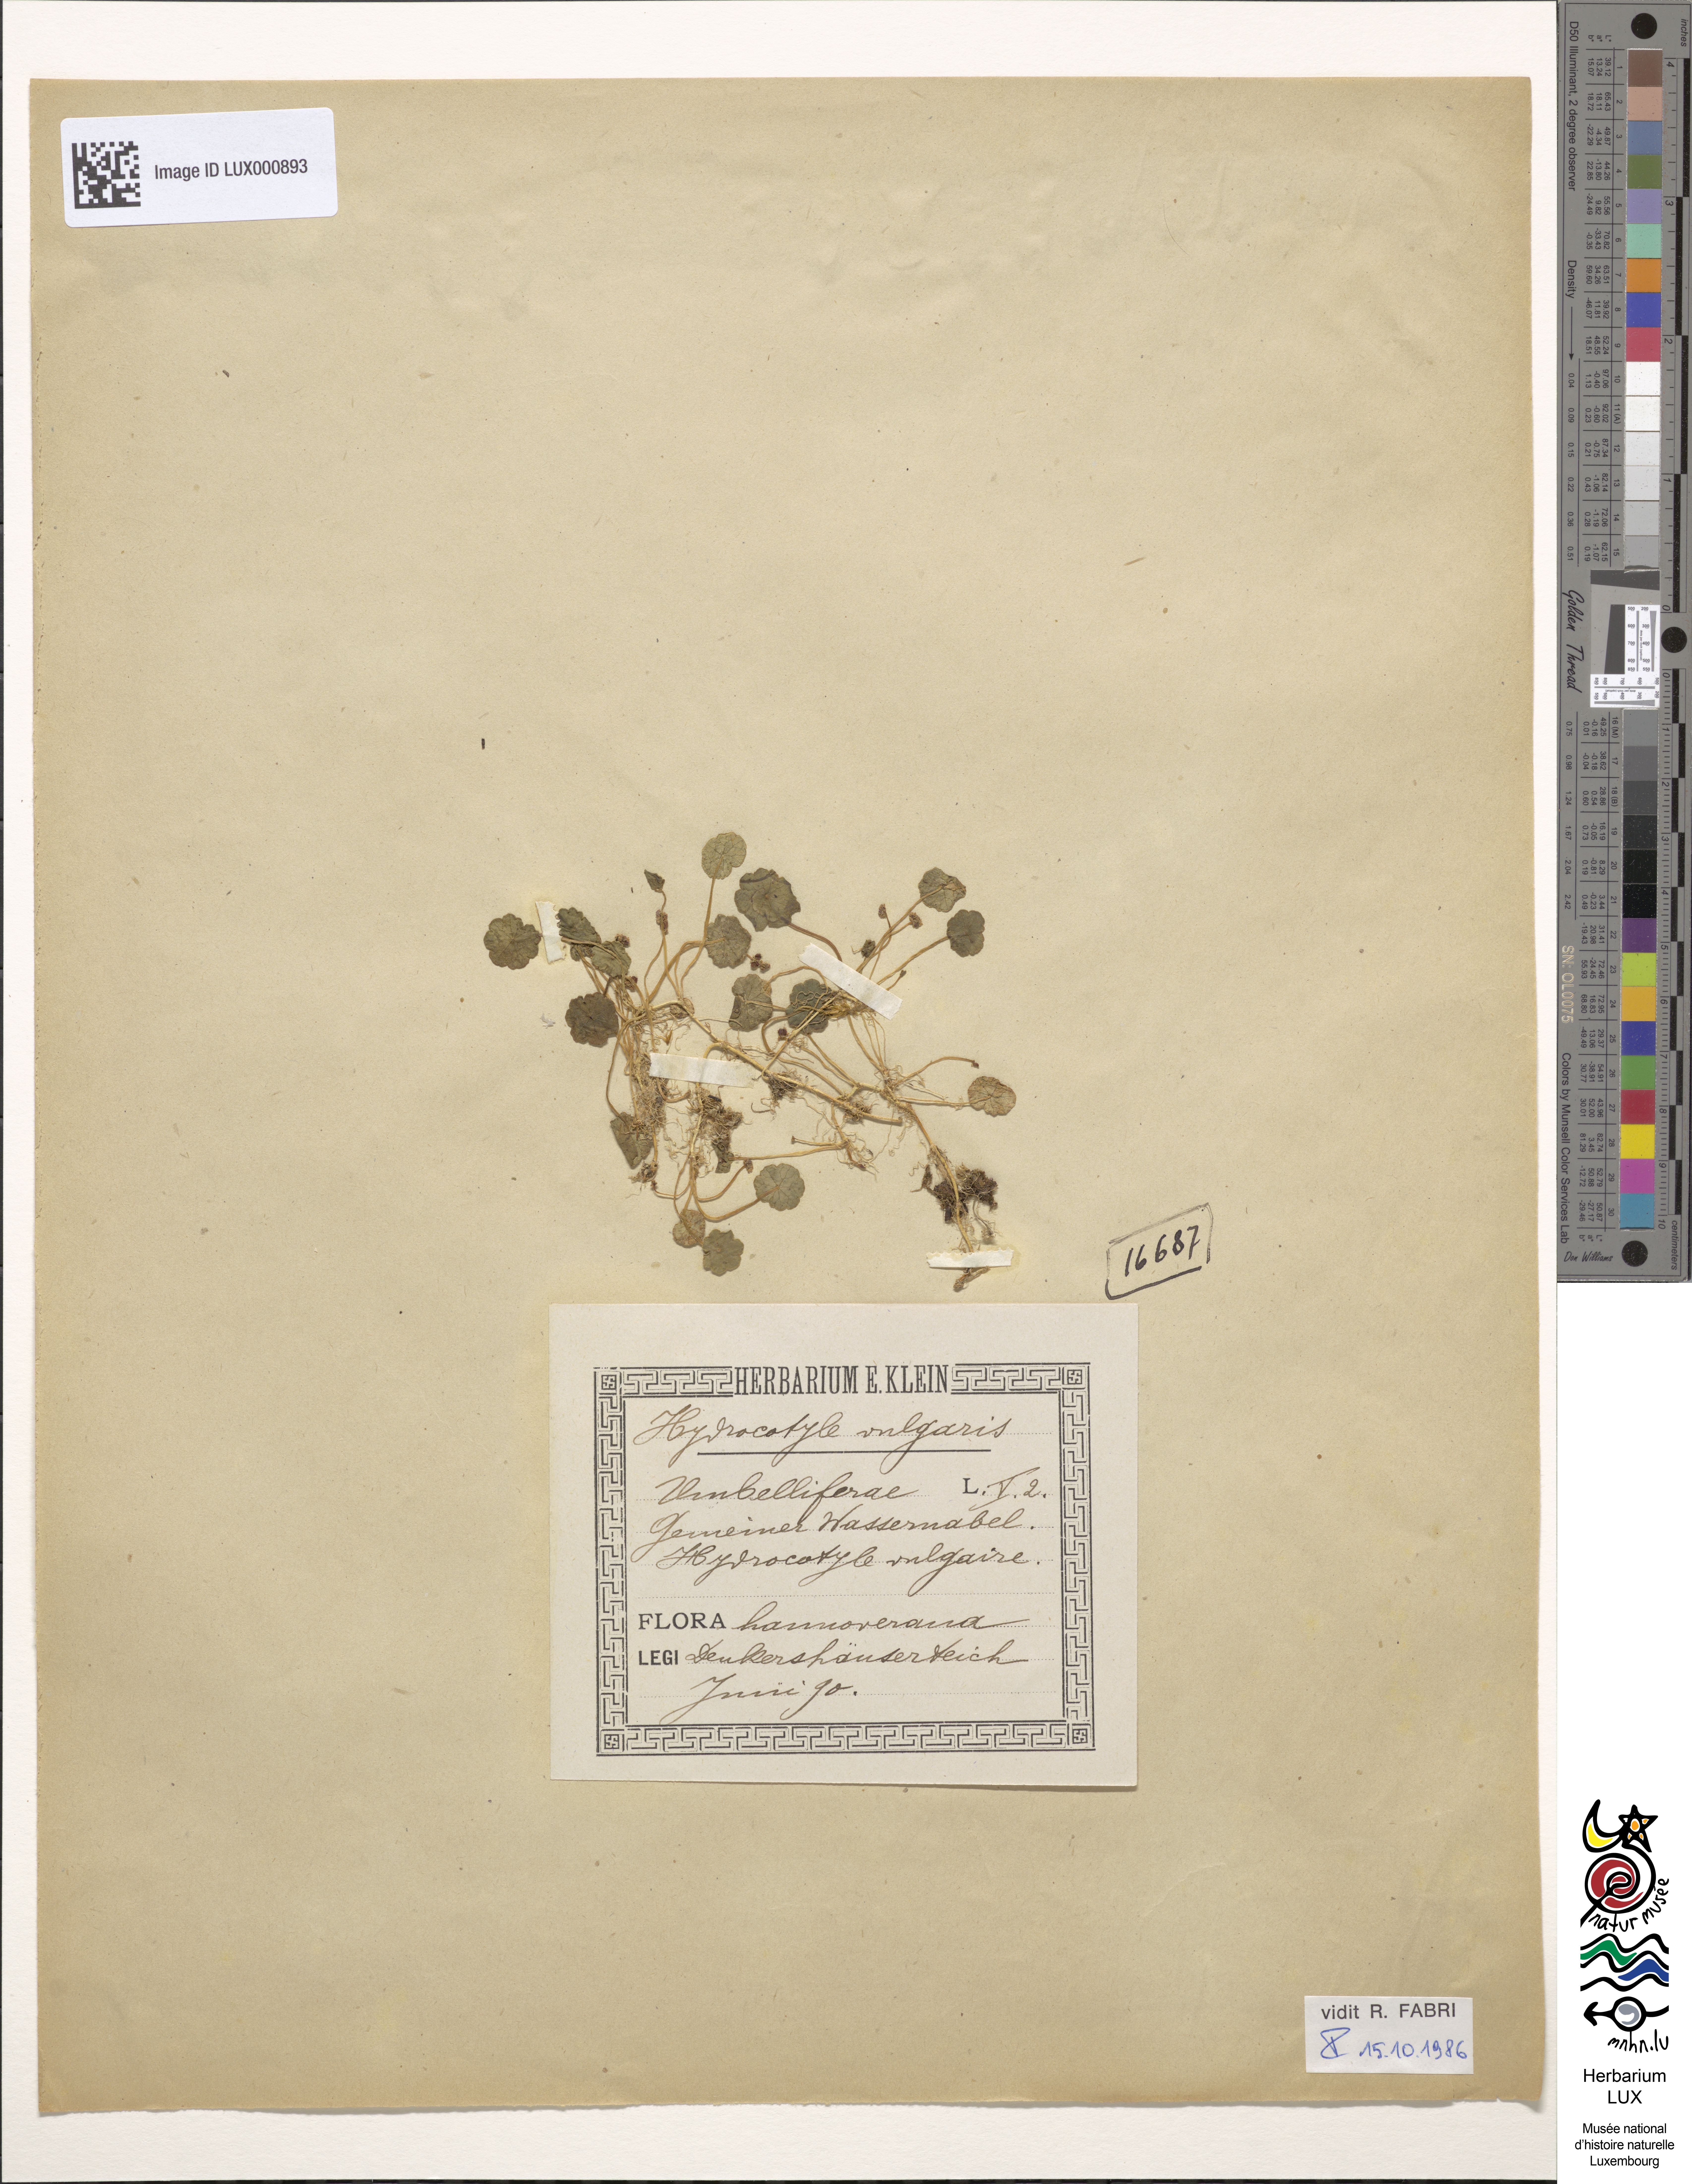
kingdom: Plantae
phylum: Tracheophyta
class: Magnoliopsida
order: Apiales
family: Araliaceae
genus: Hydrocotyle
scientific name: Hydrocotyle vulgaris
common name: Marsh pennywort
